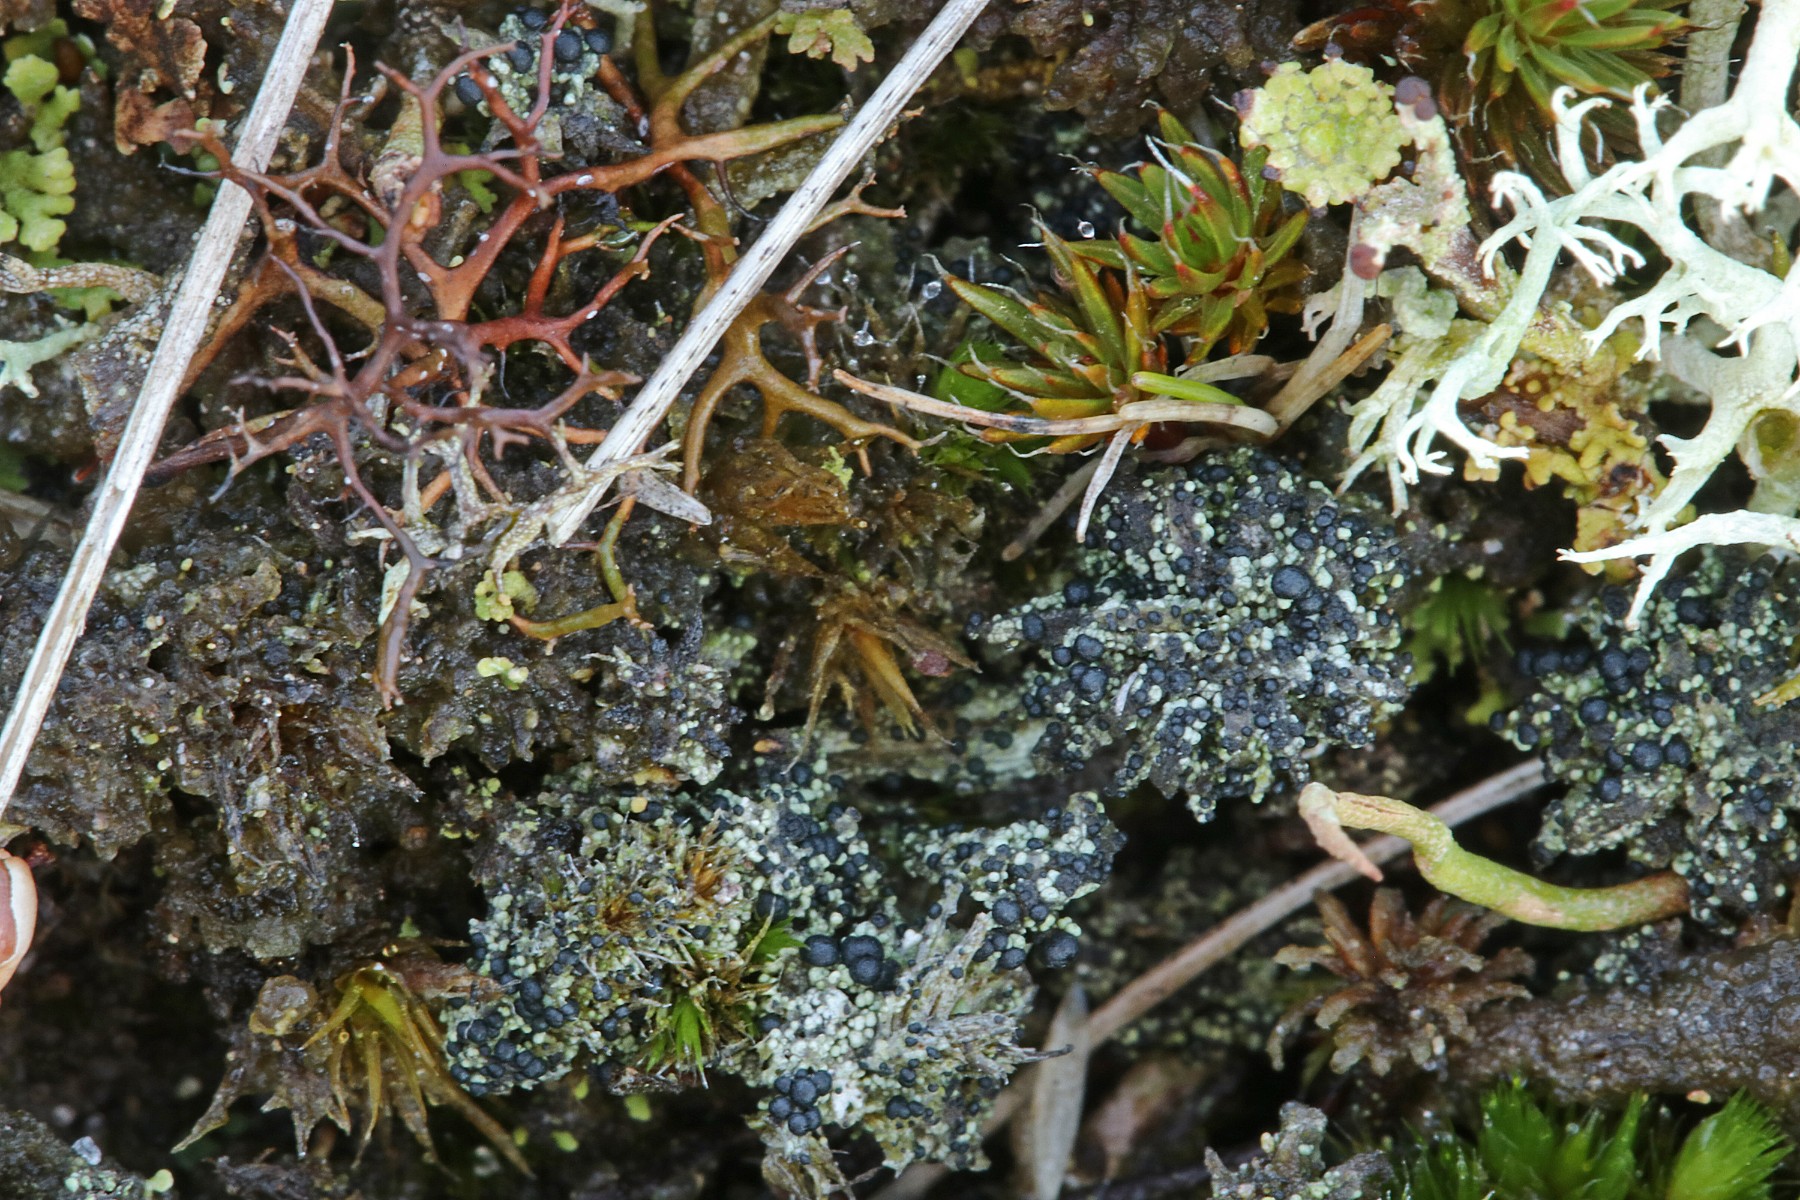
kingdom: Fungi
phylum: Ascomycota
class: Lecanoromycetes
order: Lecanorales
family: Byssolomataceae
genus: Micarea
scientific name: Micarea lignaria
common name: tørve-knaplav
